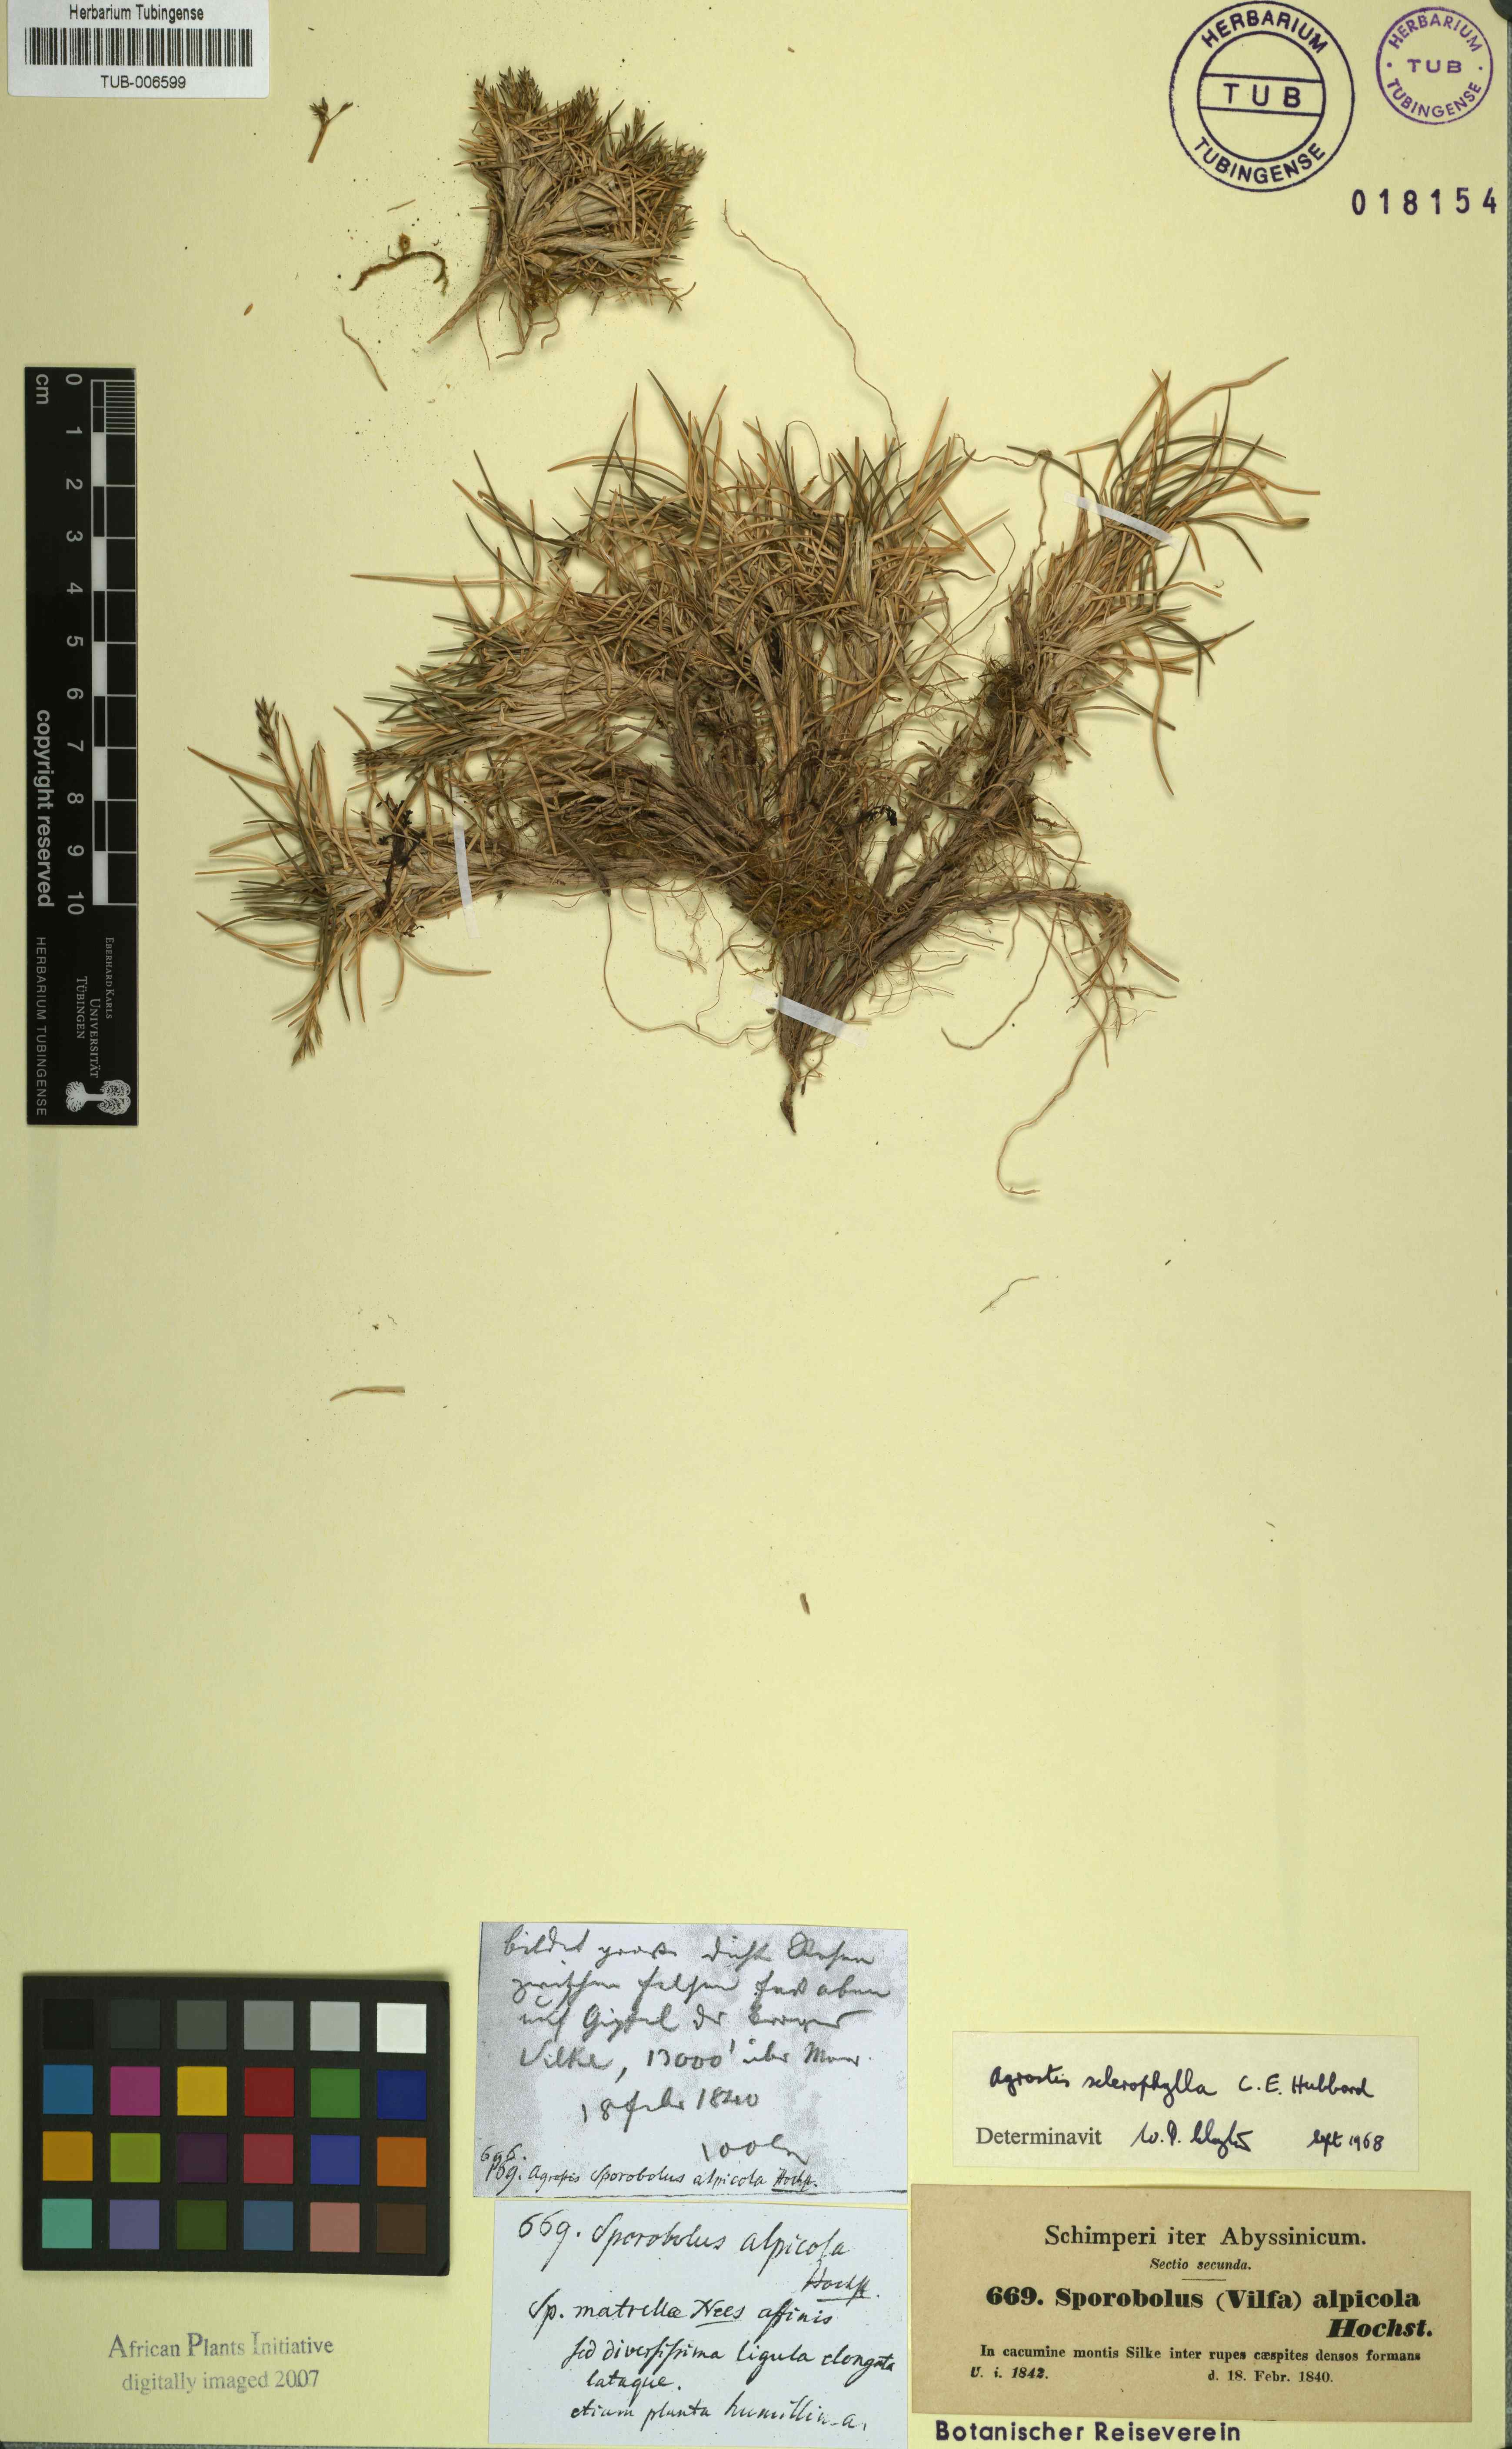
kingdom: Plantae
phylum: Tracheophyta
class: Liliopsida
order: Poales
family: Poaceae
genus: Agrostis
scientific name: Agrostis sclerophylla
